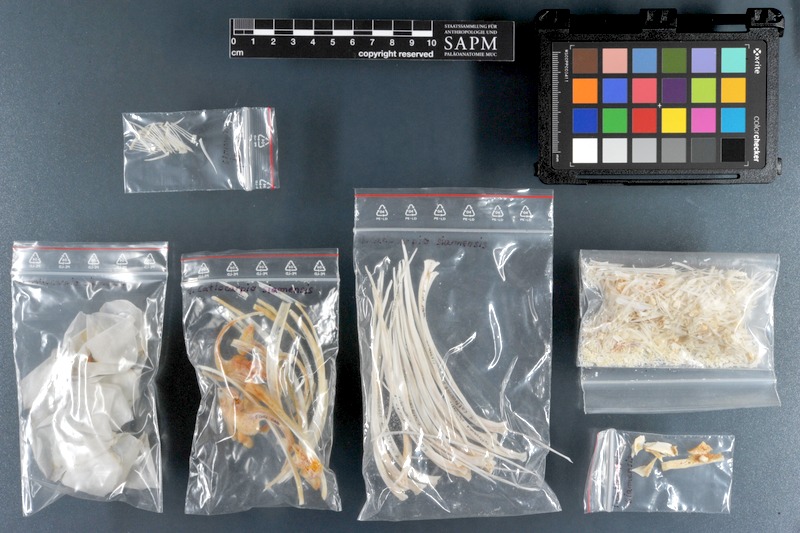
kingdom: Animalia
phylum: Chordata
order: Cypriniformes
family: Cyprinidae
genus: Catlocarpio
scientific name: Catlocarpio siamensis
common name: Giant barb
